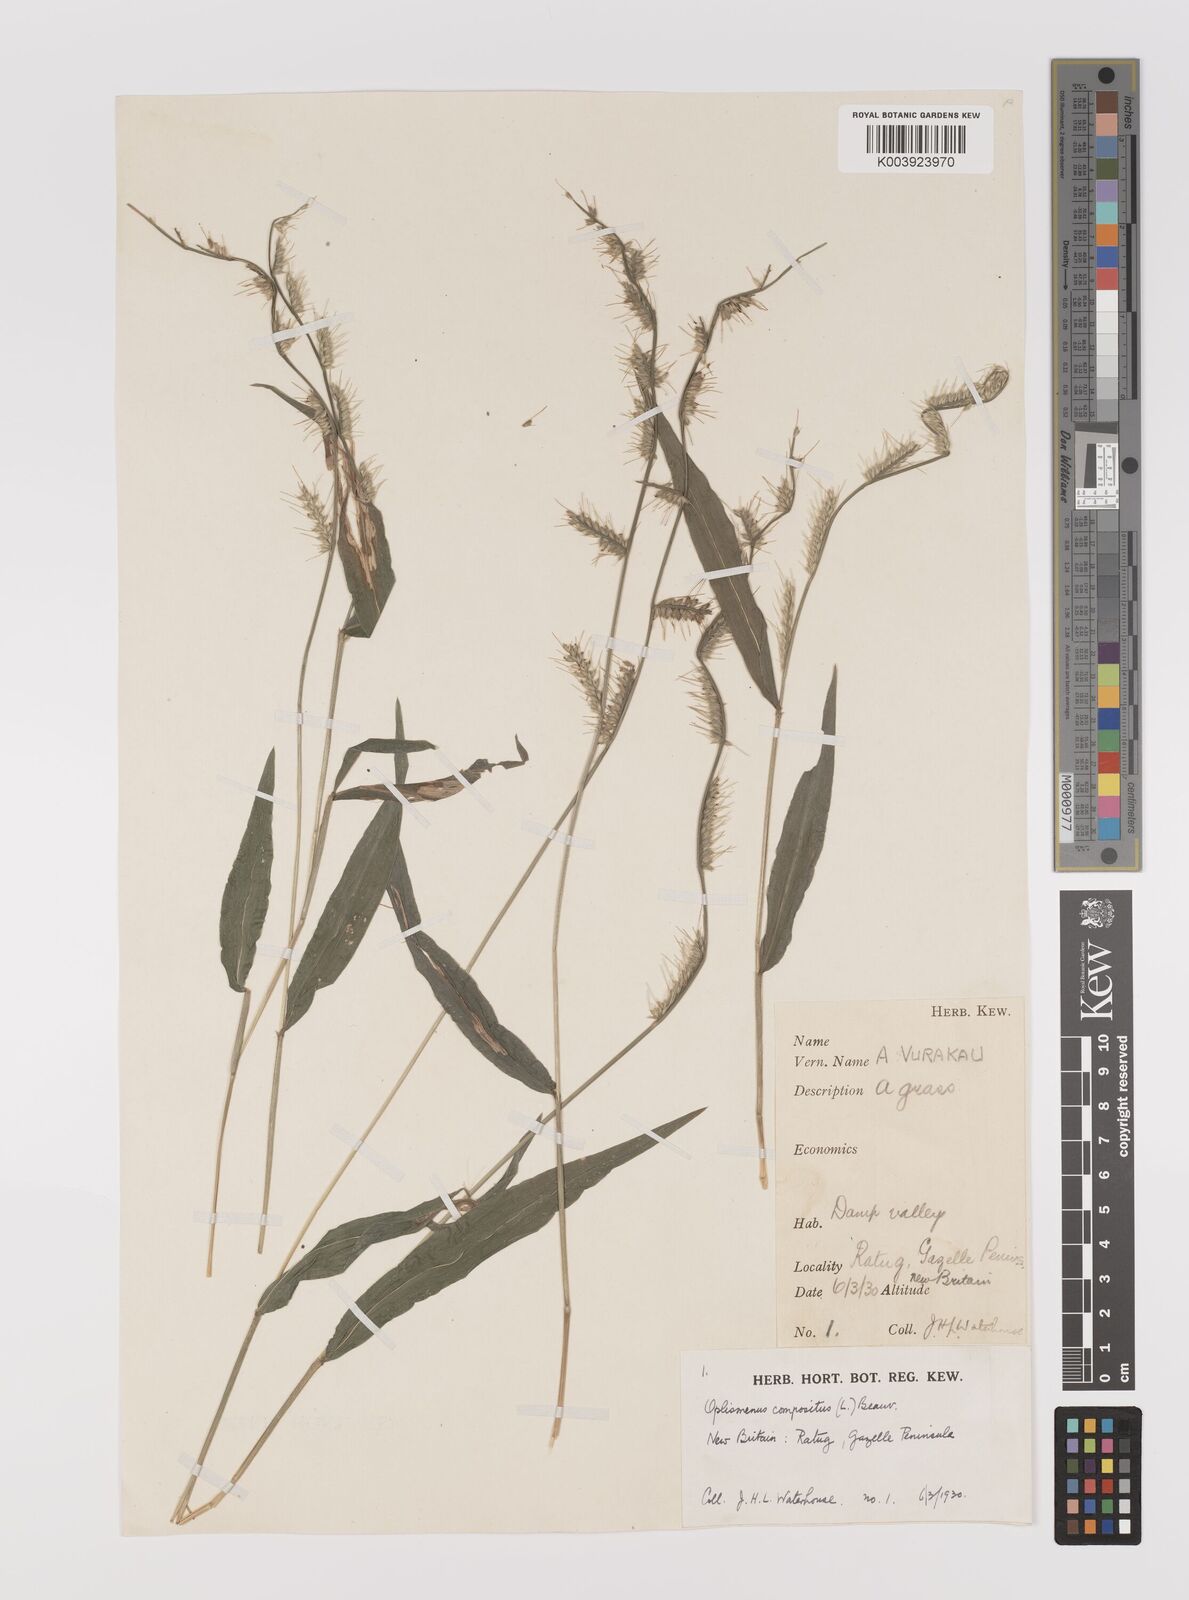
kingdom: Plantae
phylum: Tracheophyta
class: Liliopsida
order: Poales
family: Poaceae
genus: Oplismenus
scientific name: Oplismenus compositus
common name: Running mountain grass
